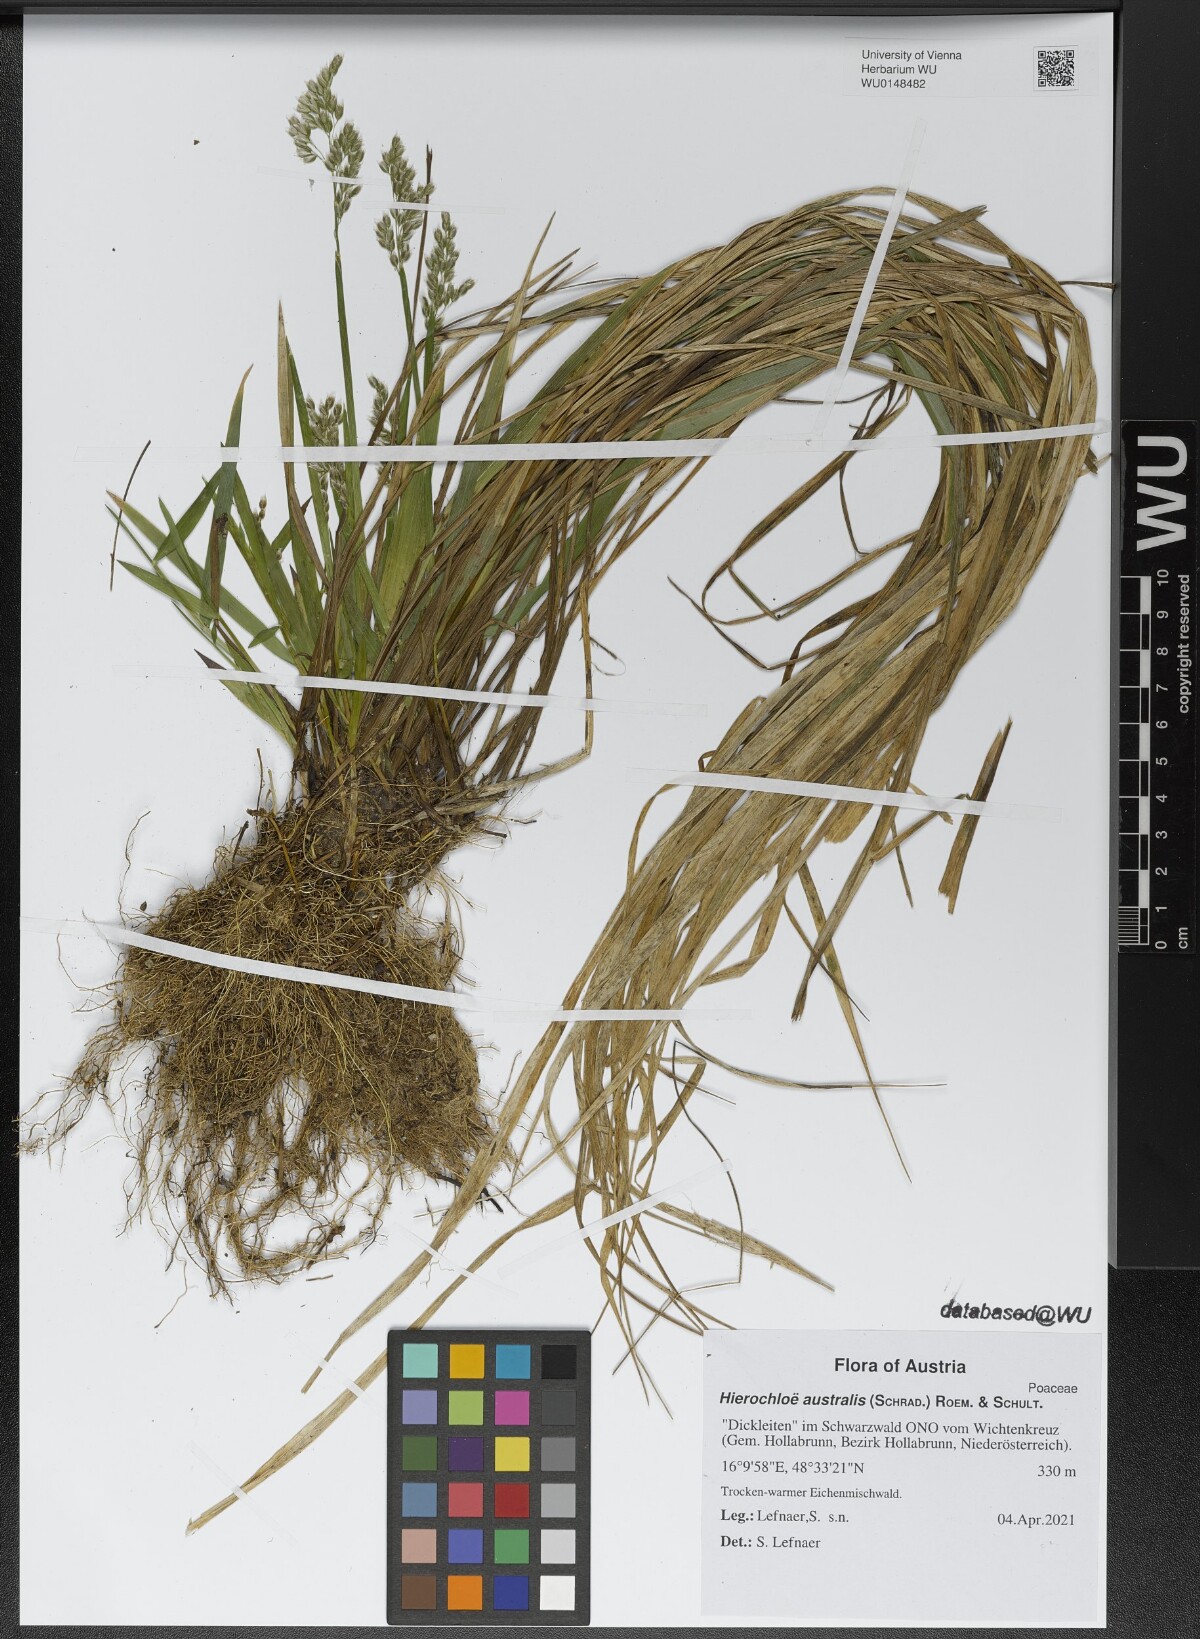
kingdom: Plantae
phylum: Tracheophyta
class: Liliopsida
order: Poales
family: Poaceae
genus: Anthoxanthum
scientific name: Anthoxanthum australe
